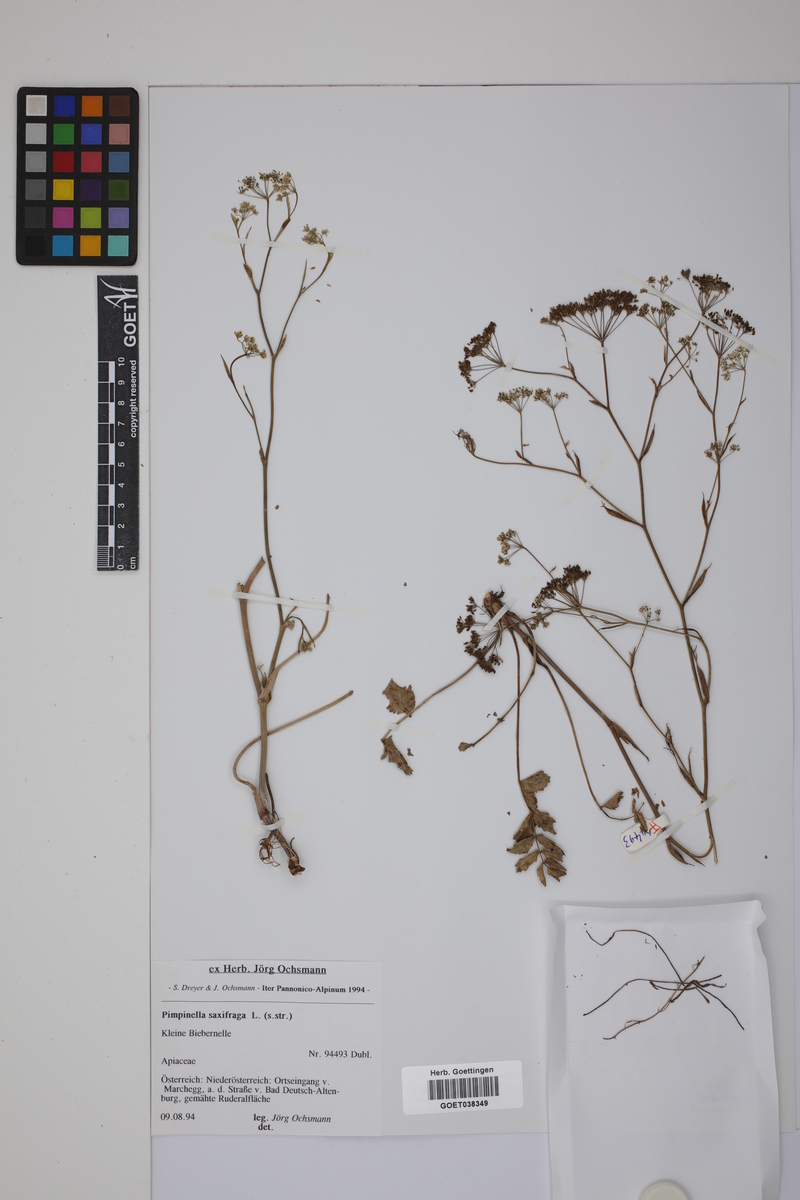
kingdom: Plantae
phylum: Tracheophyta
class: Magnoliopsida
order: Apiales
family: Apiaceae
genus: Pimpinella
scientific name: Pimpinella saxifraga
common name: Burnet-saxifrage
